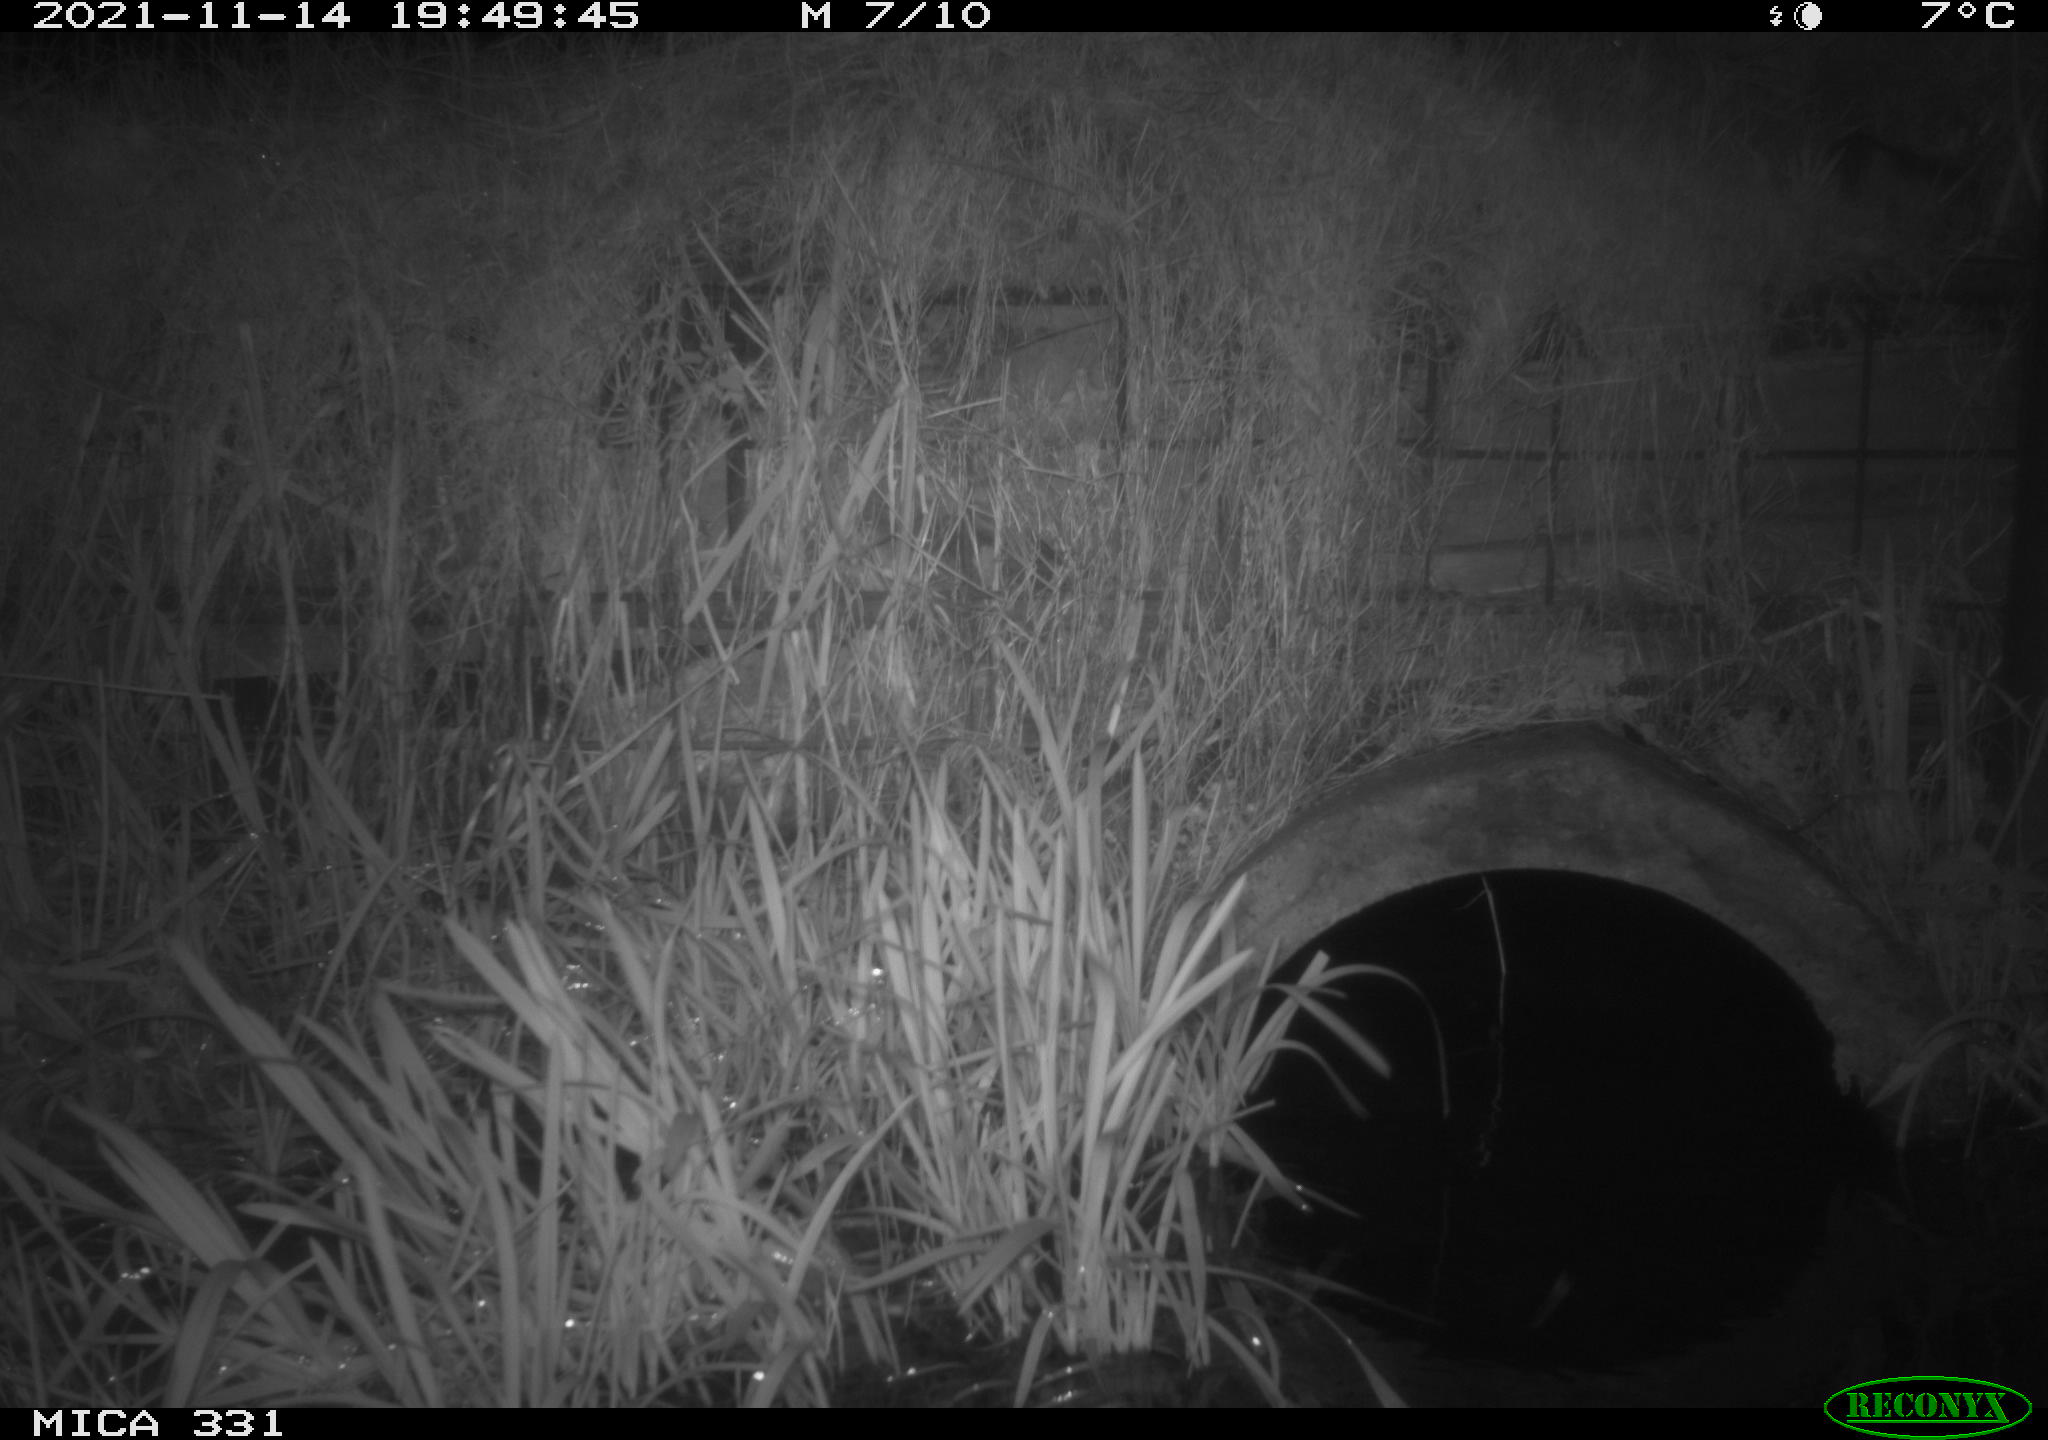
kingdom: Animalia
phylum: Chordata
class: Mammalia
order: Rodentia
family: Muridae
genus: Rattus
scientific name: Rattus norvegicus
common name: Brown rat
